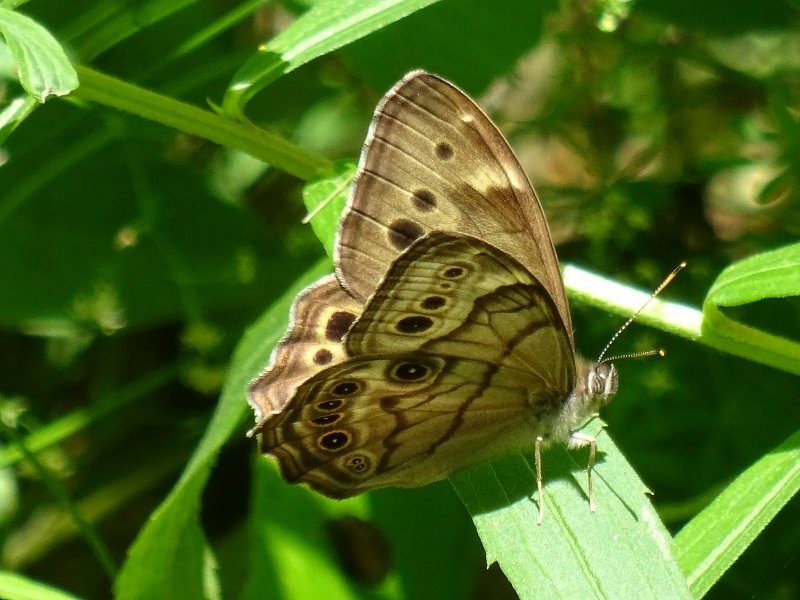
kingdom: Animalia
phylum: Arthropoda
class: Insecta
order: Lepidoptera
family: Nymphalidae
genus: Lethe
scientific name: Lethe anthedon
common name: Northern Pearly-Eye
